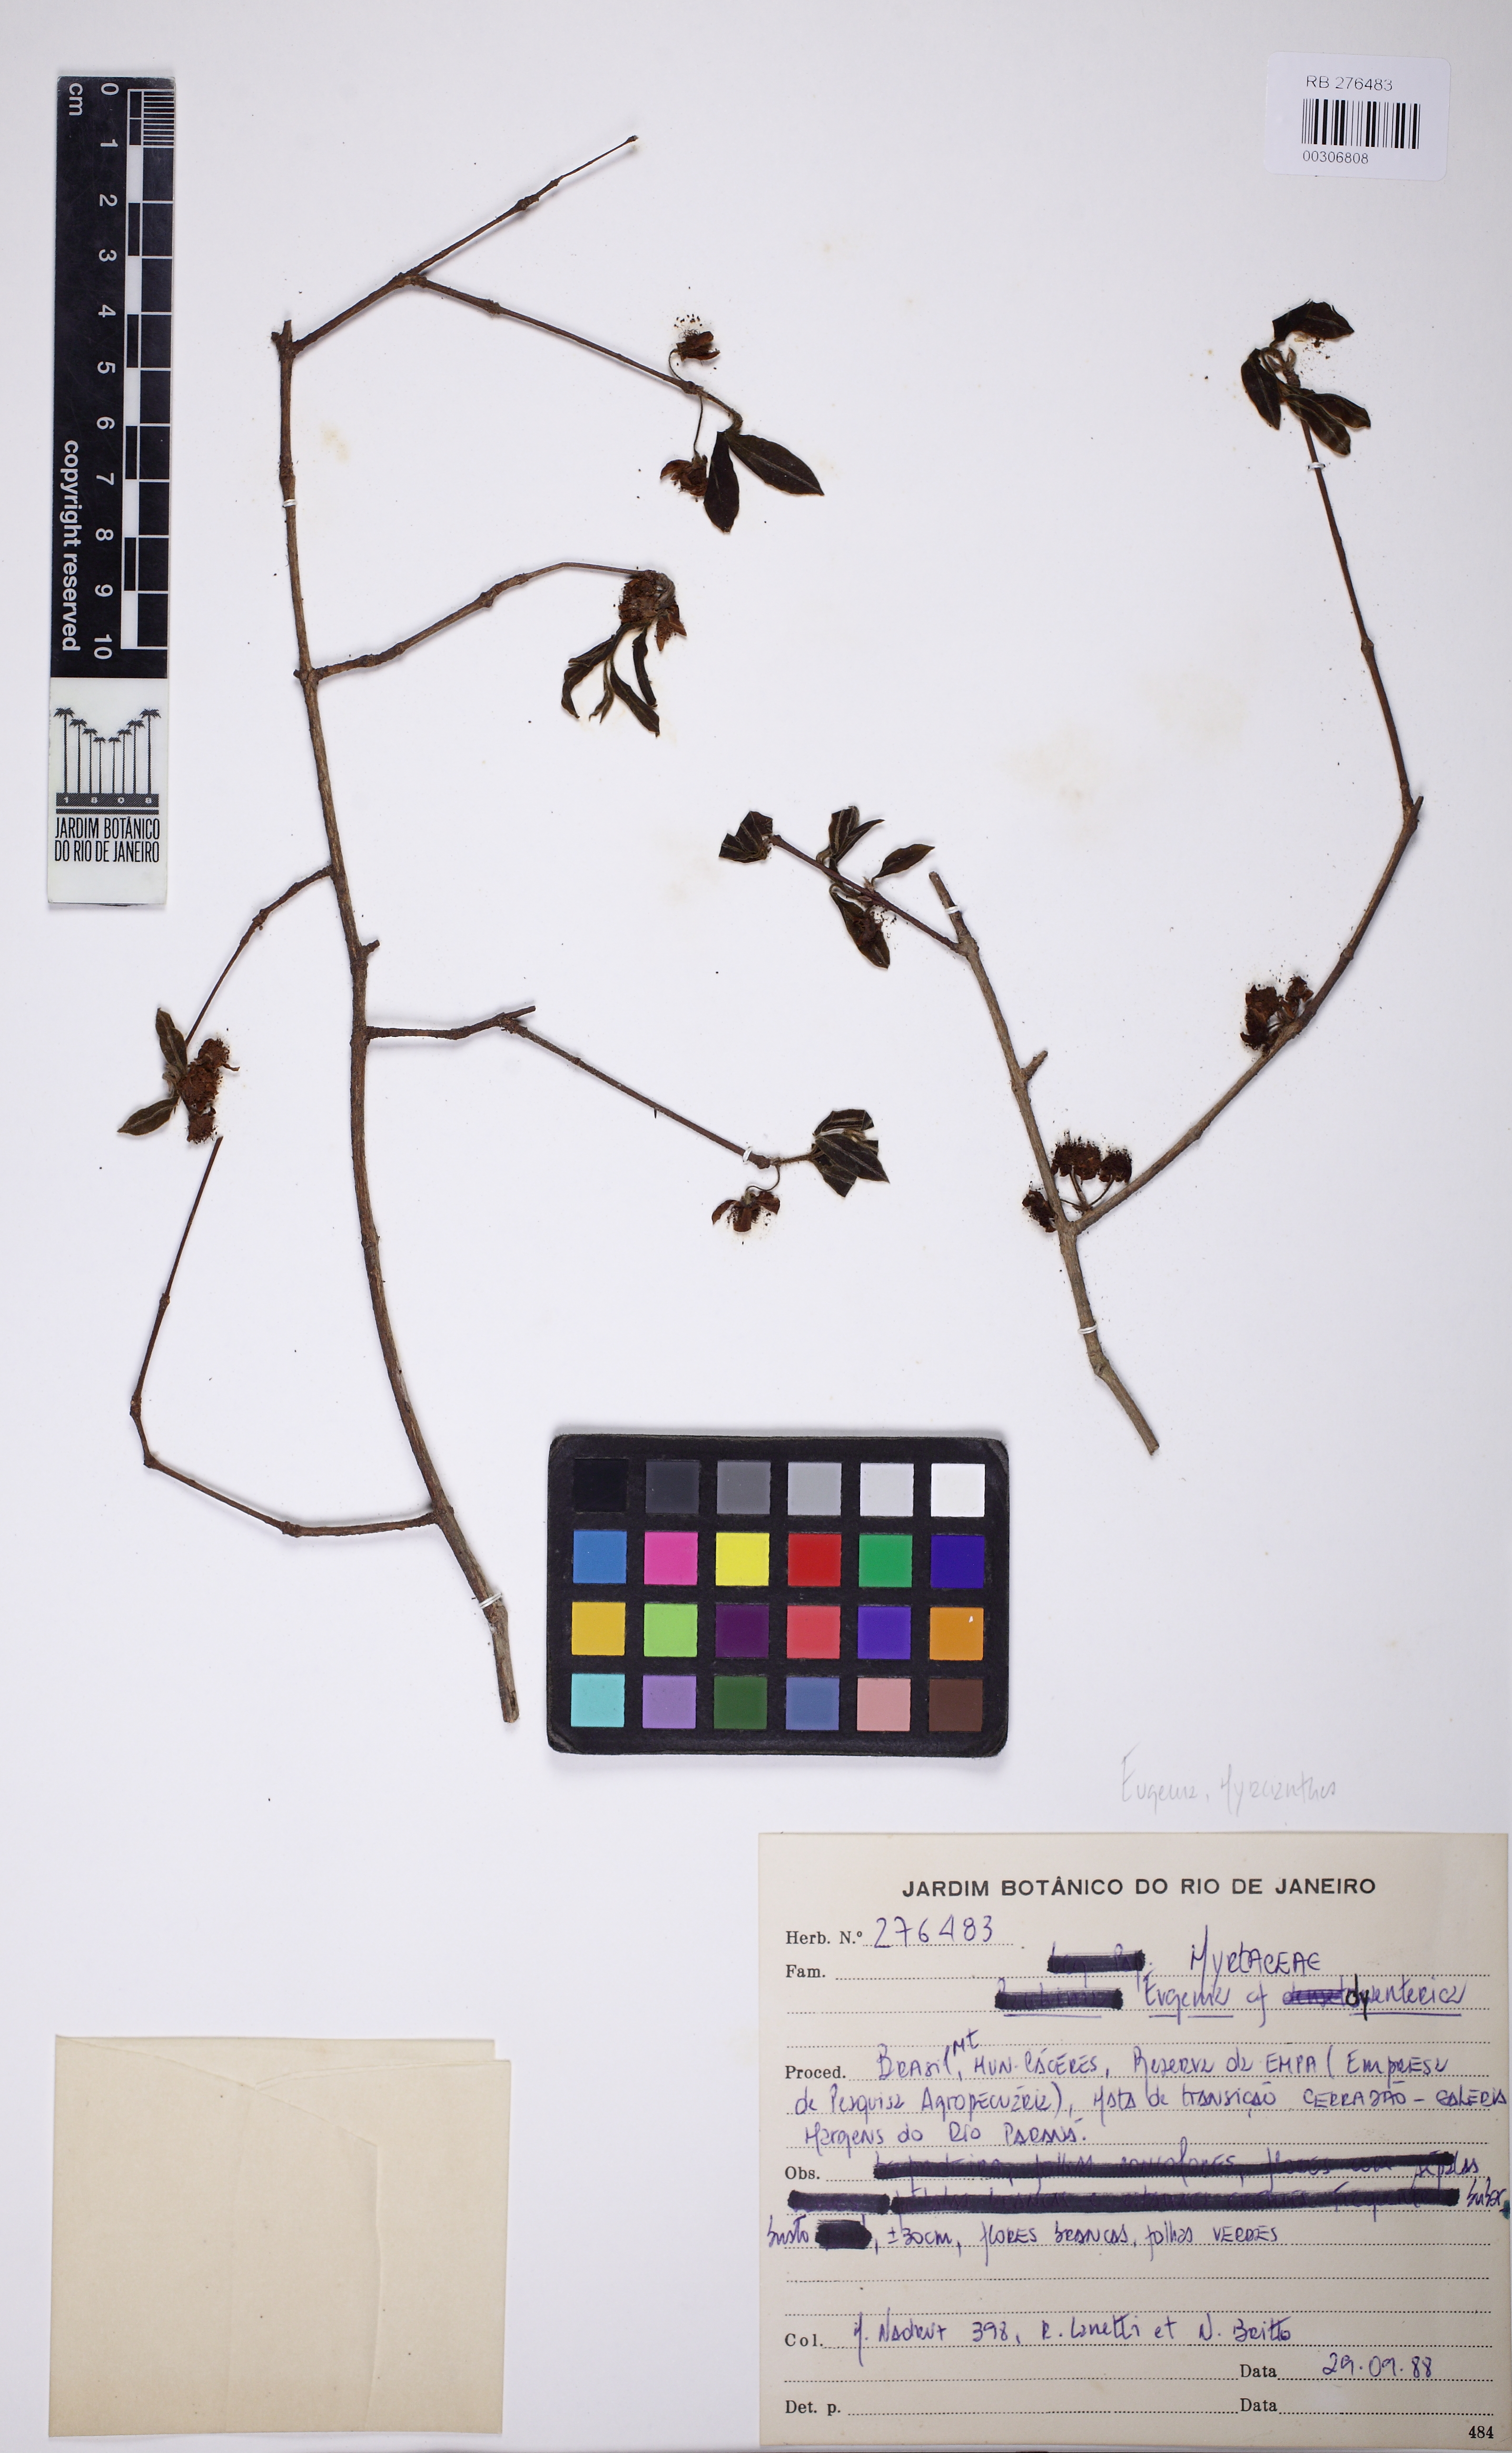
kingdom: Plantae
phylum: Tracheophyta
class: Magnoliopsida
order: Myrtales
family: Myrtaceae
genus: Eugenia
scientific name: Eugenia dysenterica
